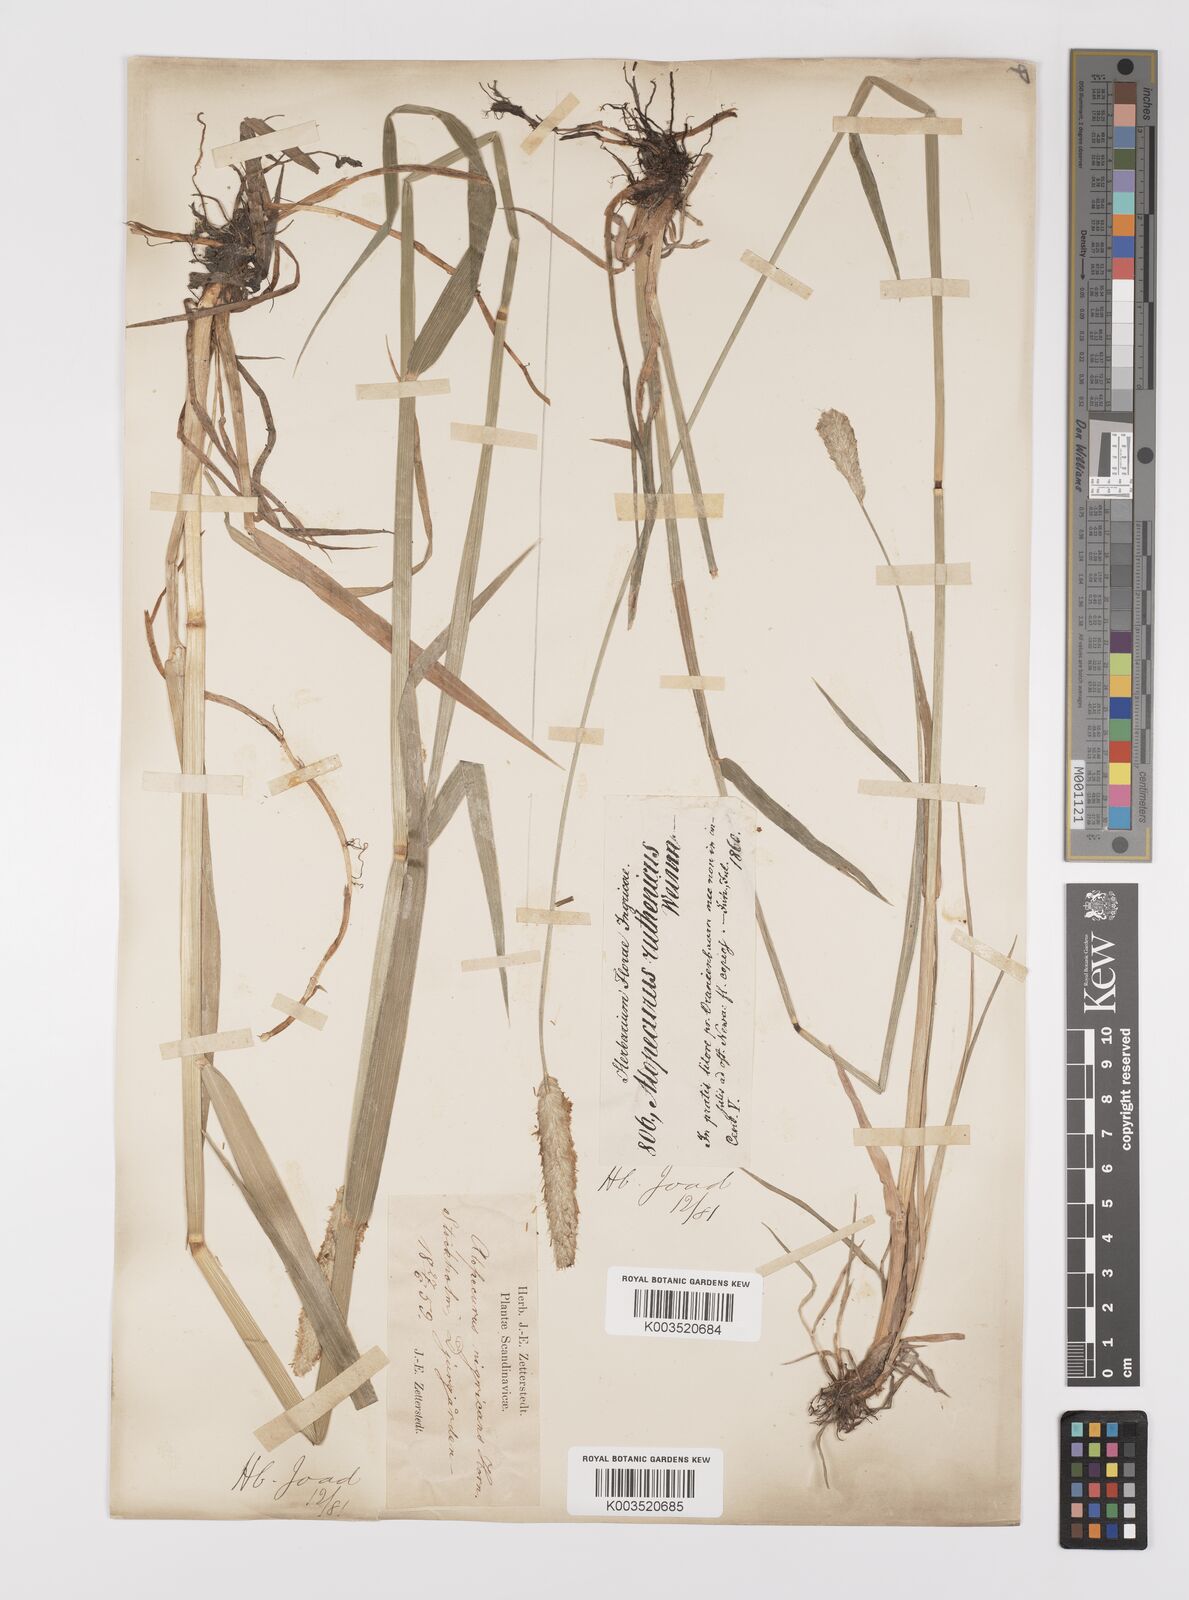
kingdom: Plantae
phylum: Tracheophyta
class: Liliopsida
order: Poales
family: Poaceae
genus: Alopecurus
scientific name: Alopecurus arundinaceus
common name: Creeping meadow foxtail
